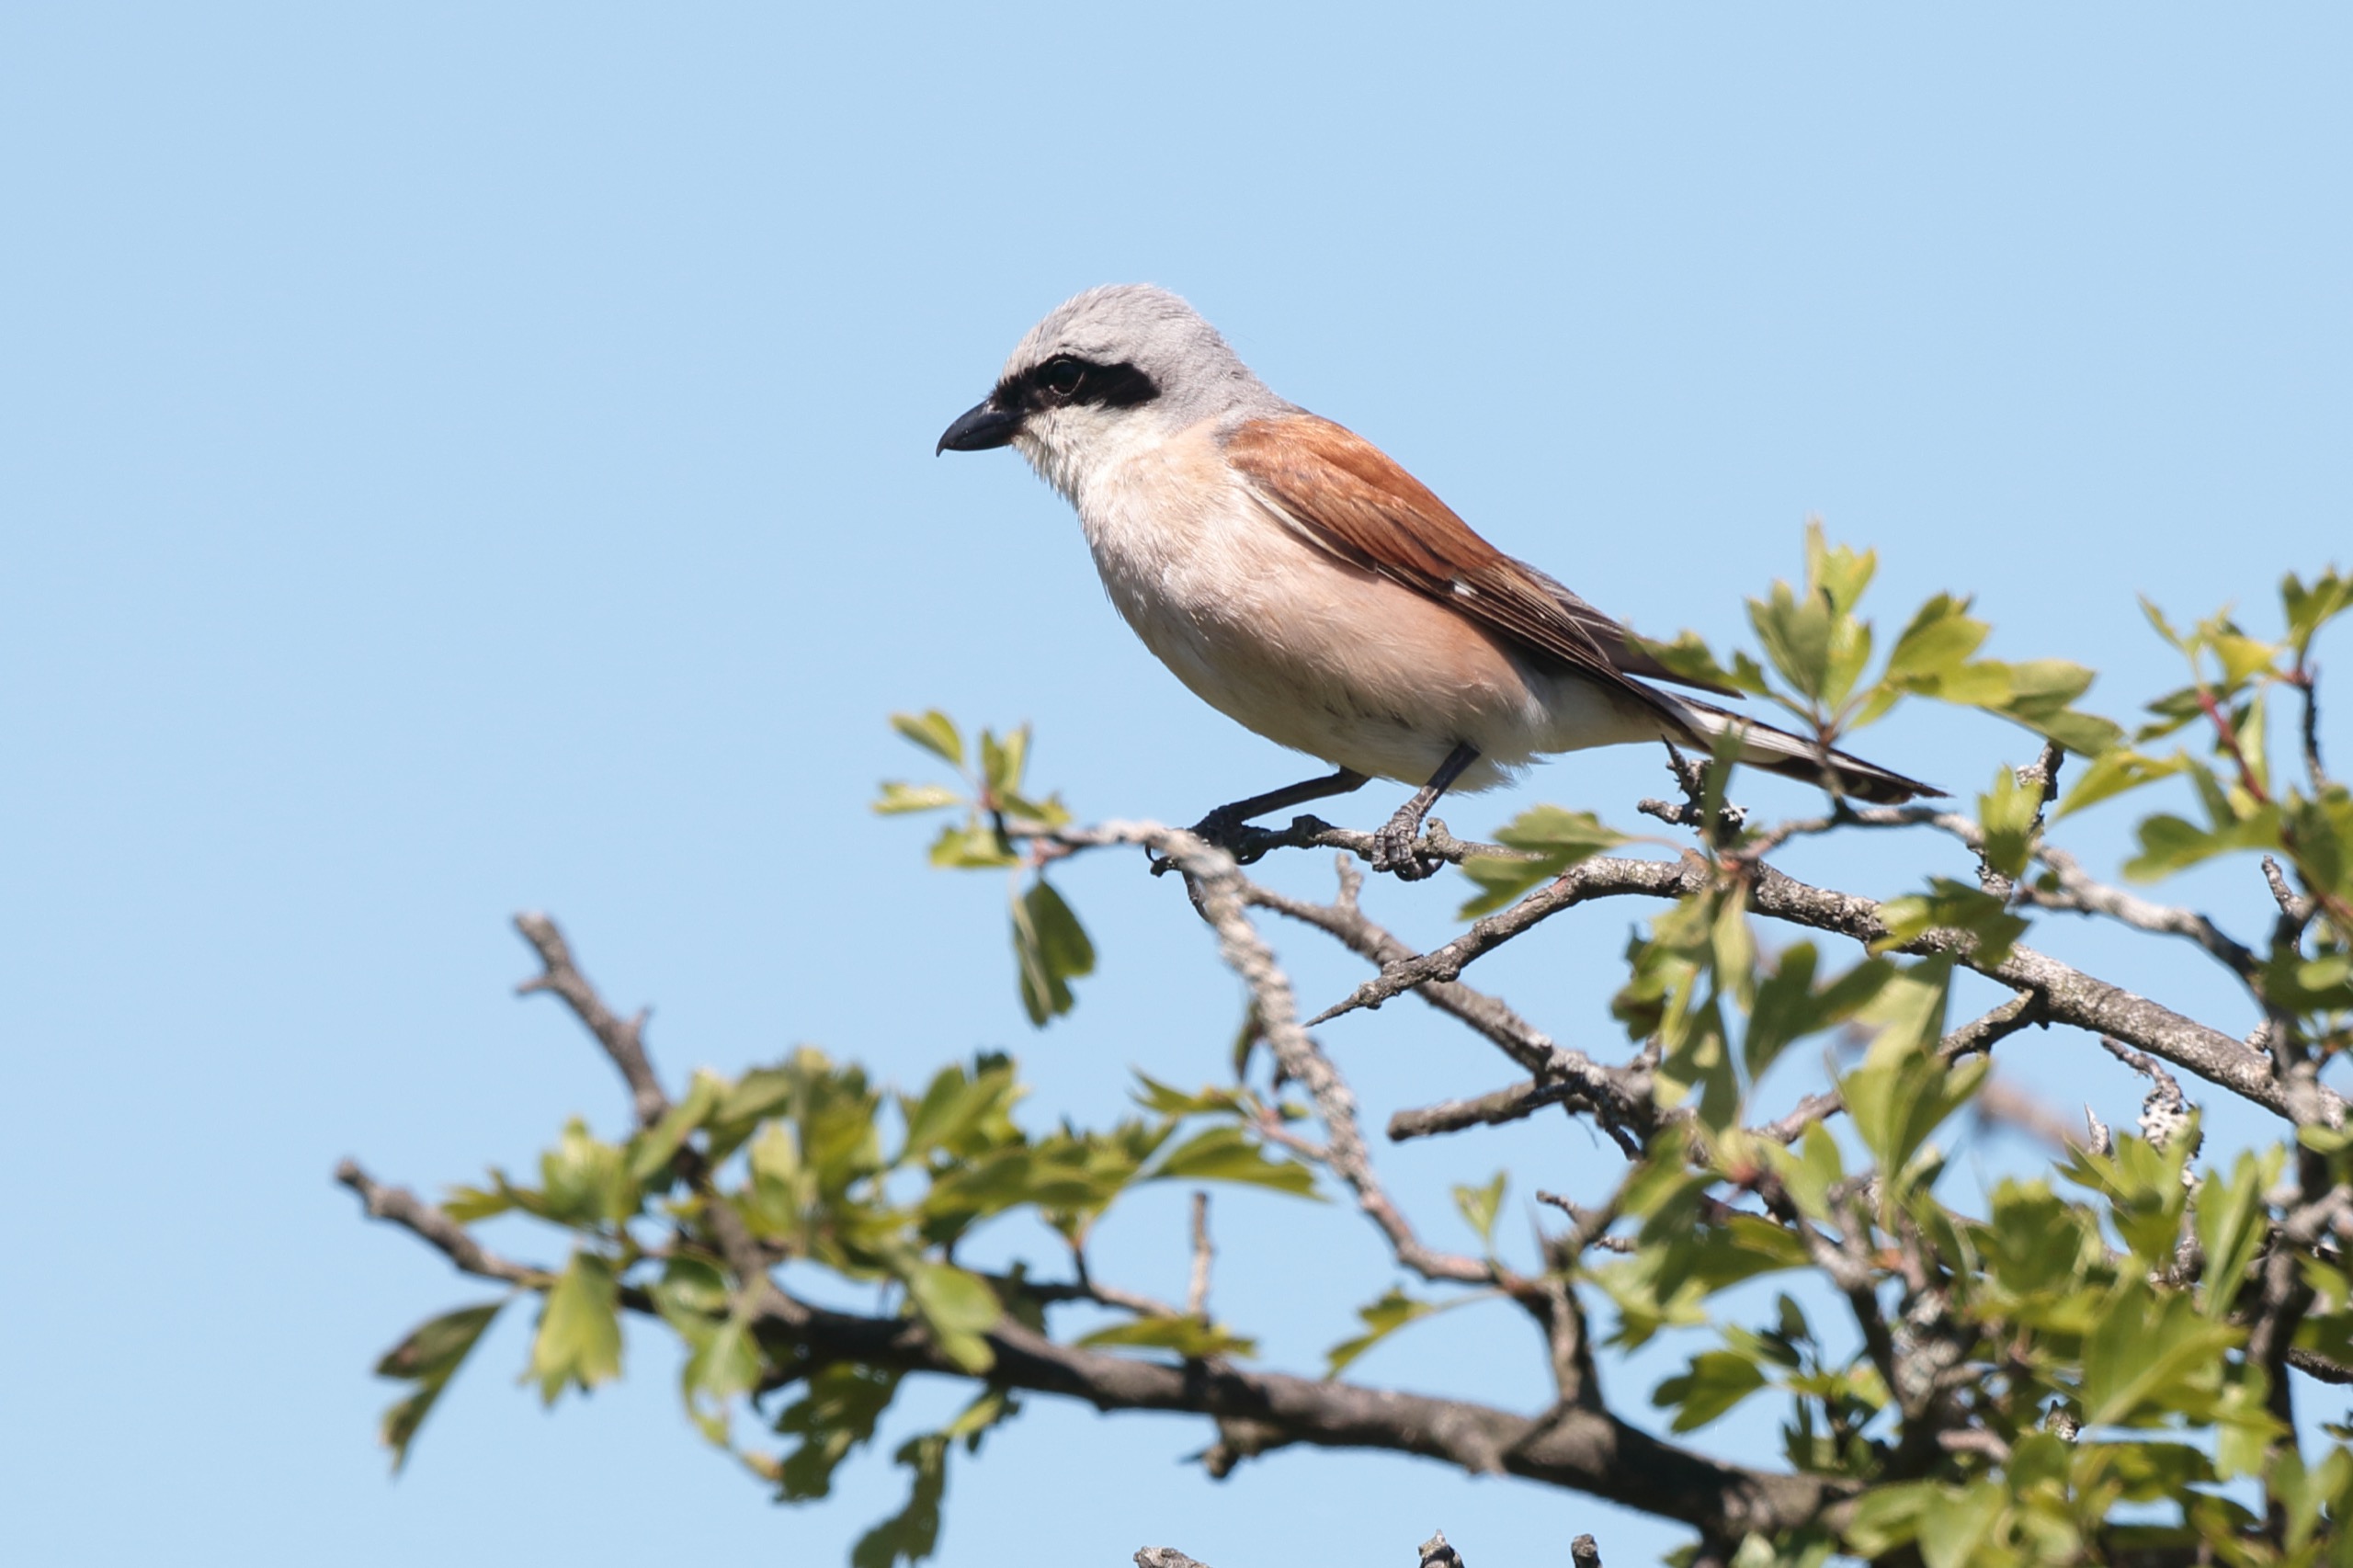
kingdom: Animalia
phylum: Chordata
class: Aves
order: Passeriformes
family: Laniidae
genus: Lanius
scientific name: Lanius collurio
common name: Rødrygget tornskade
